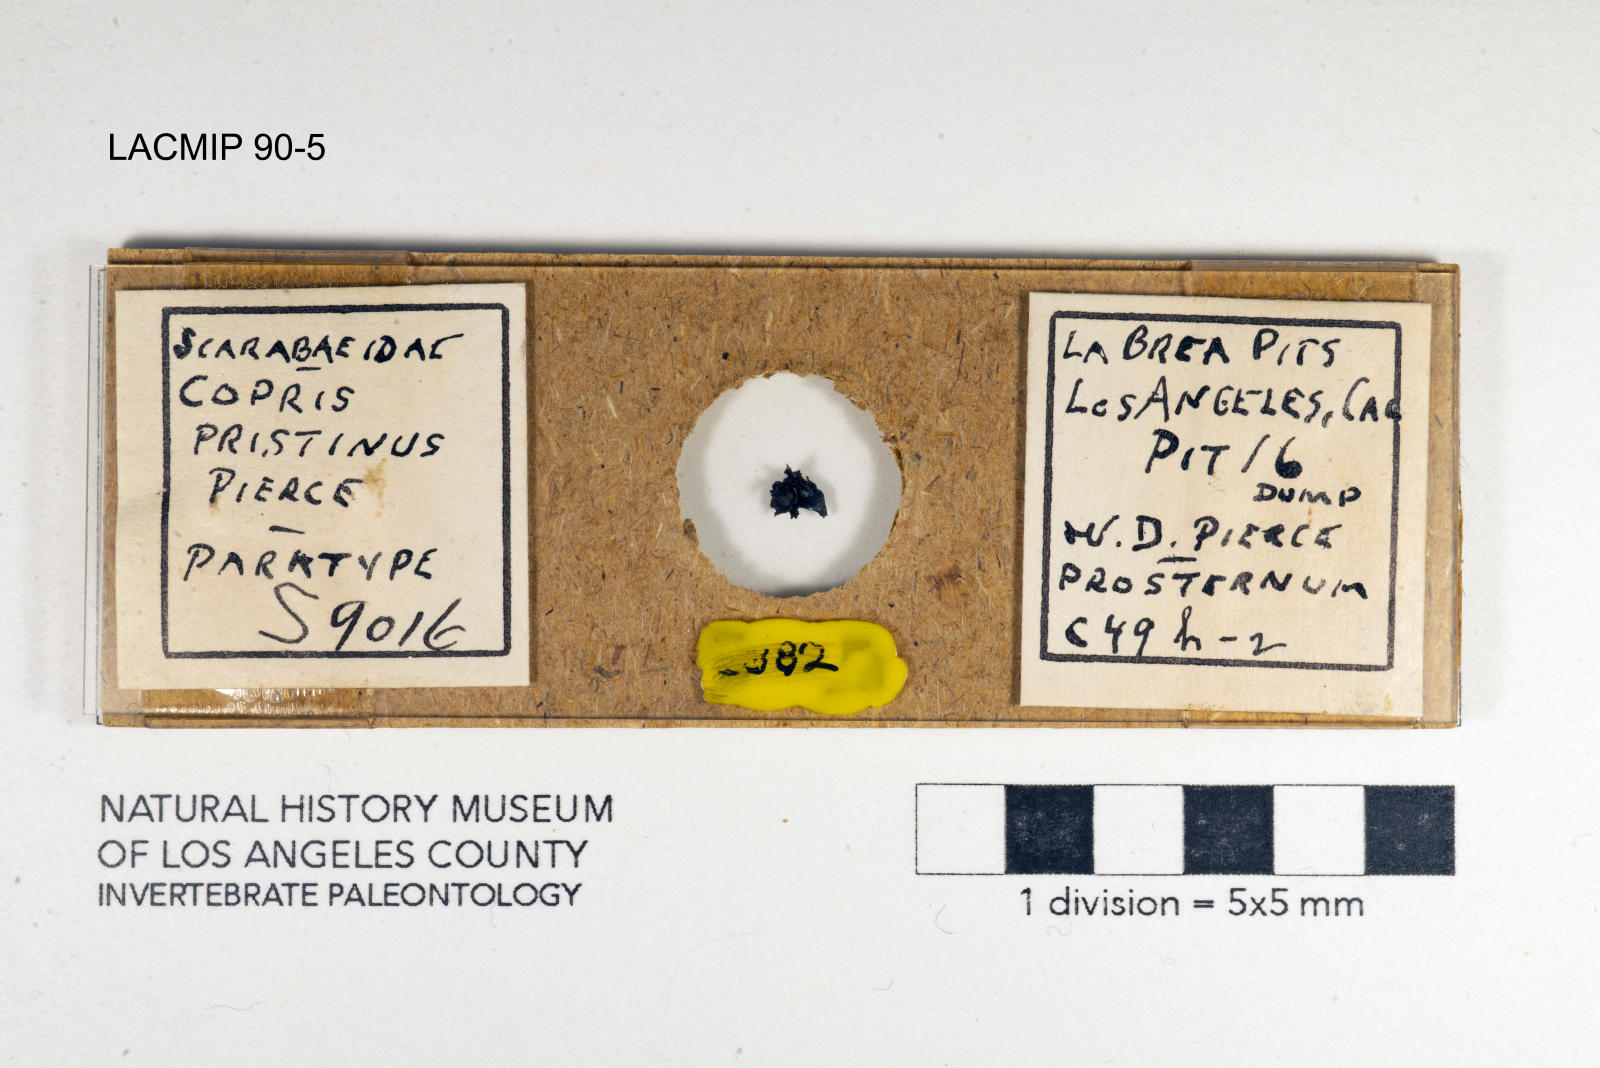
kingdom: Animalia
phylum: Arthropoda
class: Insecta
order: Coleoptera
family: Scarabaeidae
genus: Copris
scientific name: Copris pristinus
